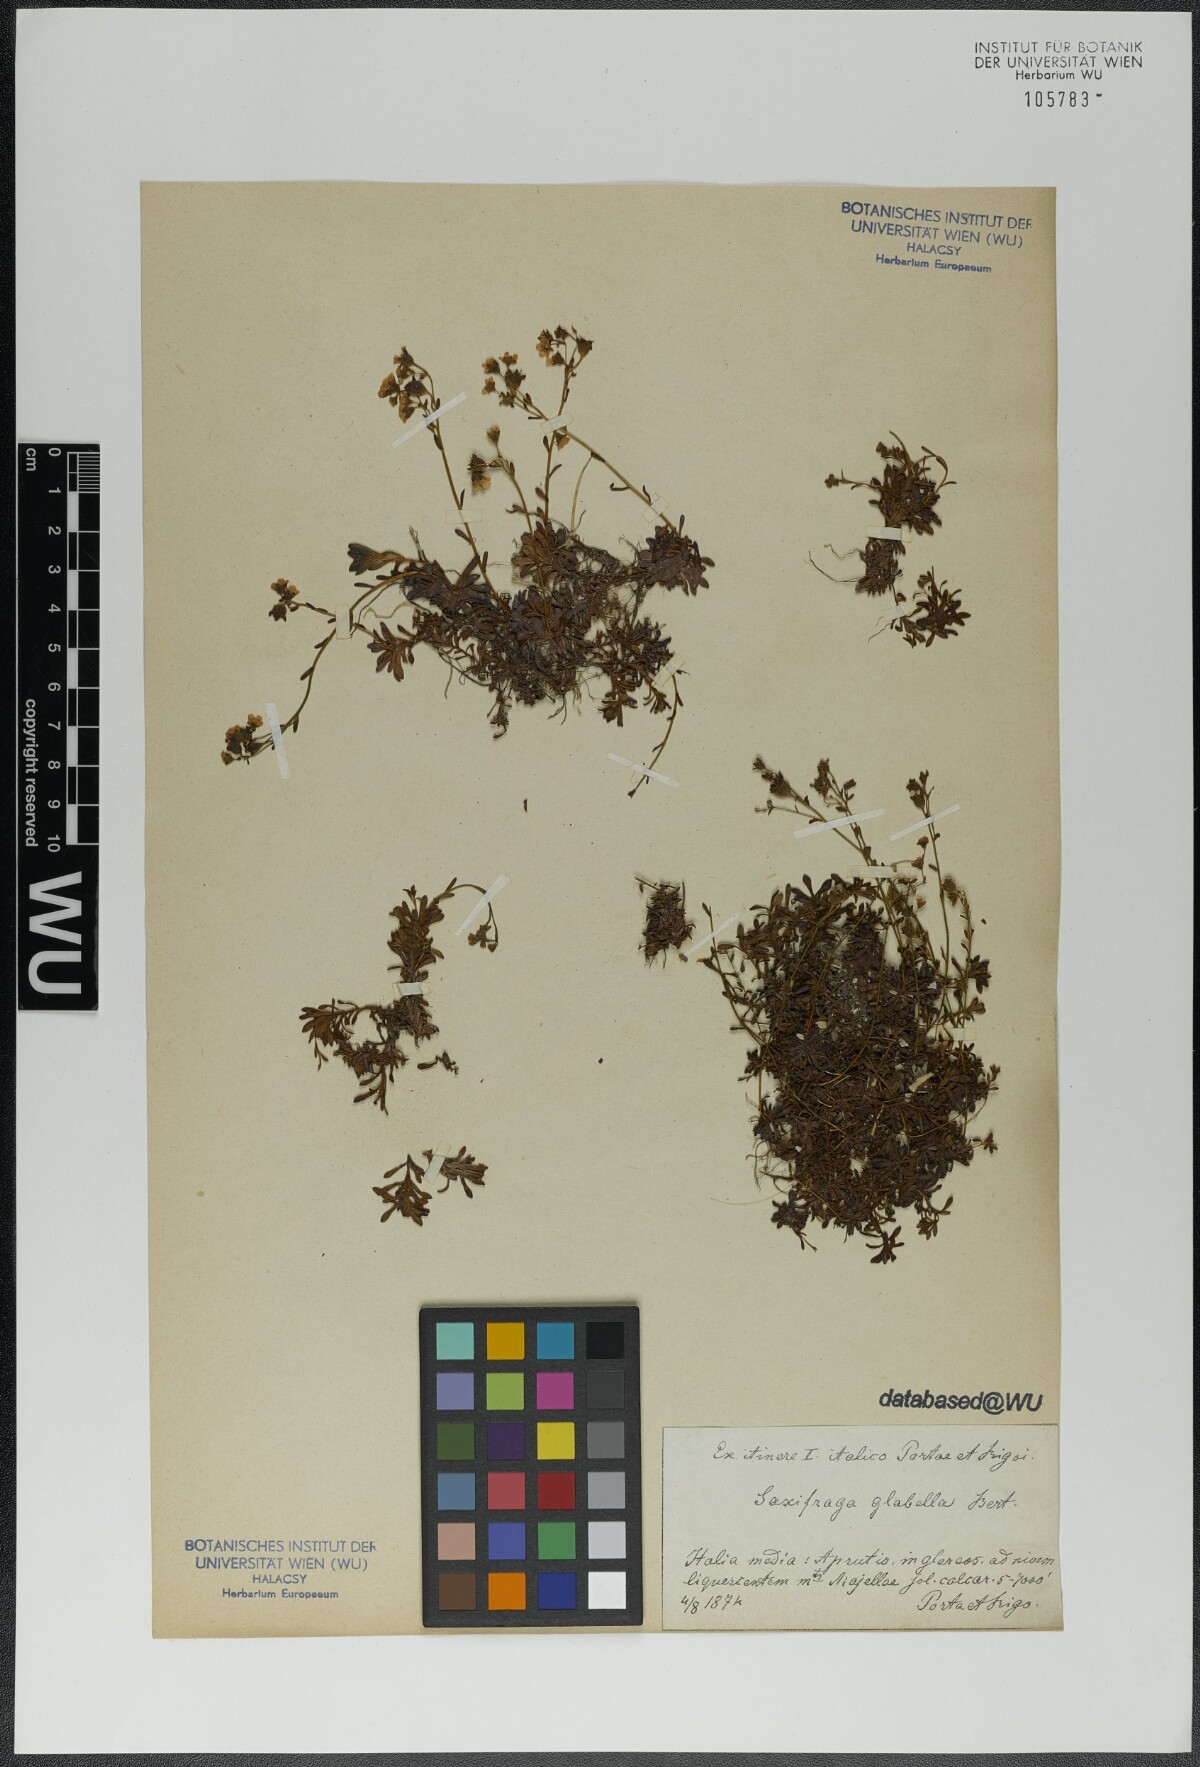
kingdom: Plantae
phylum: Tracheophyta
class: Magnoliopsida
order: Saxifragales
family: Saxifragaceae
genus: Saxifraga
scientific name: Saxifraga glabella
